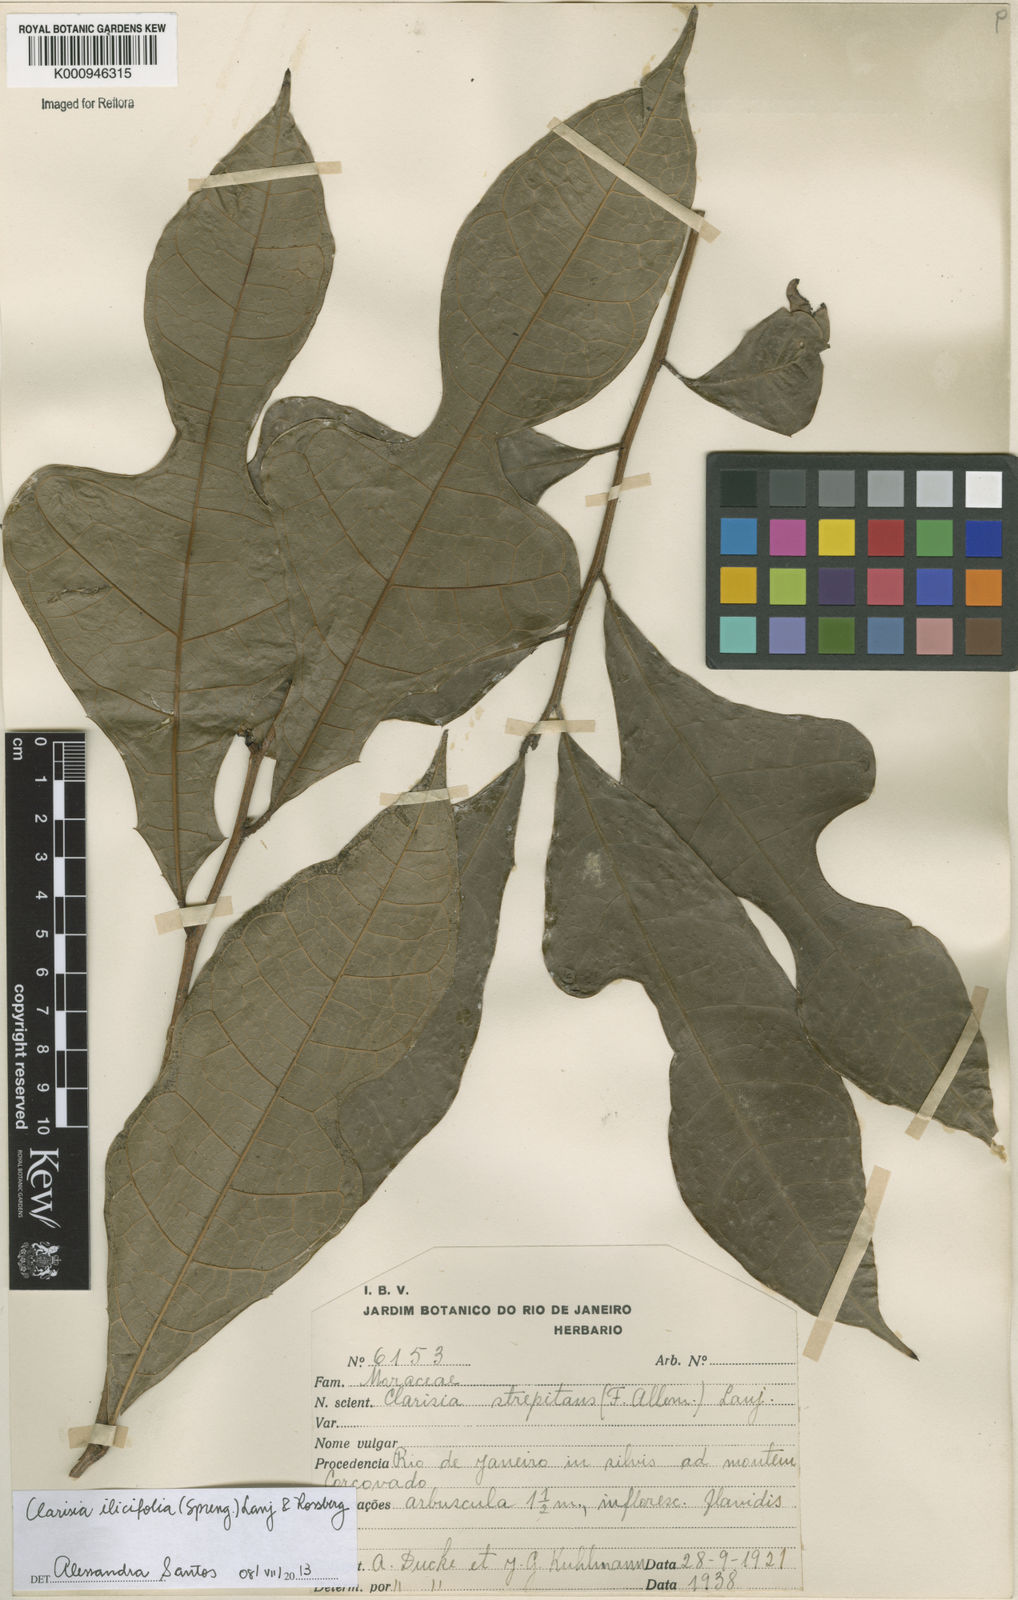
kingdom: Plantae
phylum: Tracheophyta
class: Magnoliopsida
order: Rosales
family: Moraceae
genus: Clarisia
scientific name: Clarisia ilicifolia
